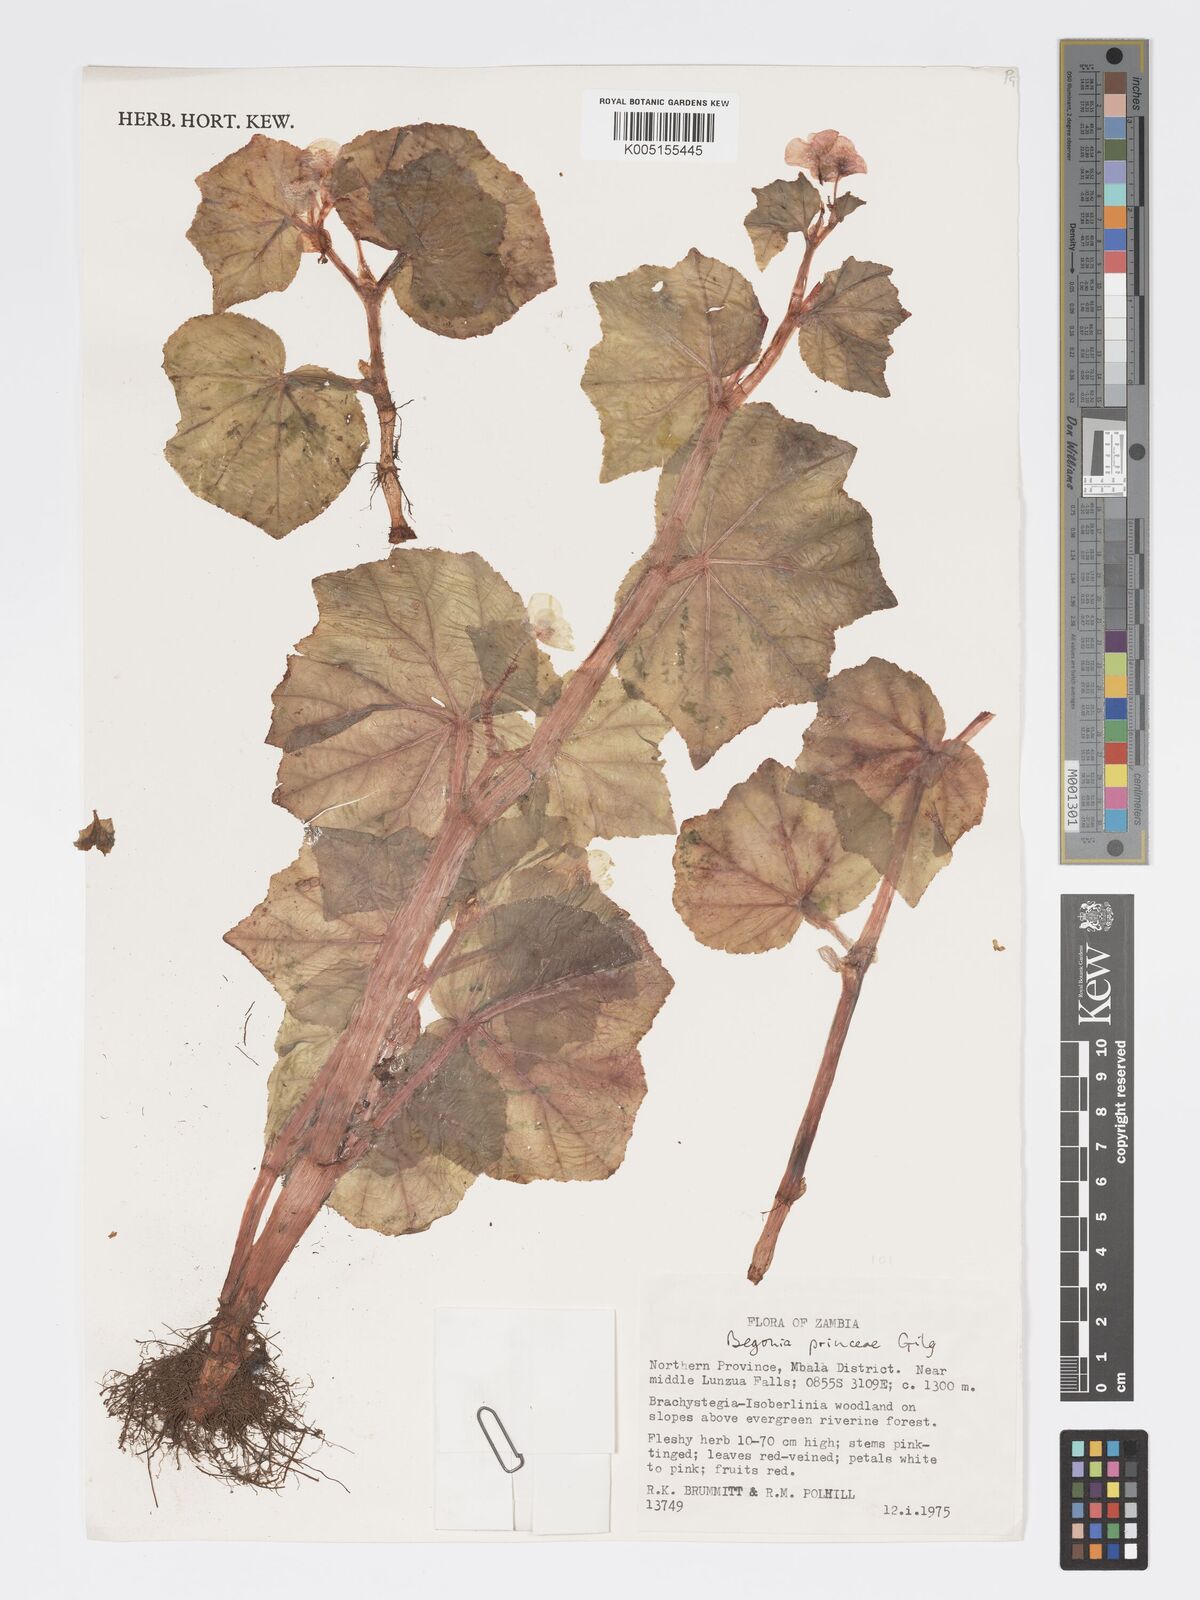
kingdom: Plantae
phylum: Tracheophyta
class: Magnoliopsida
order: Cucurbitales
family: Begoniaceae
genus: Begonia
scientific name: Begonia princeae
